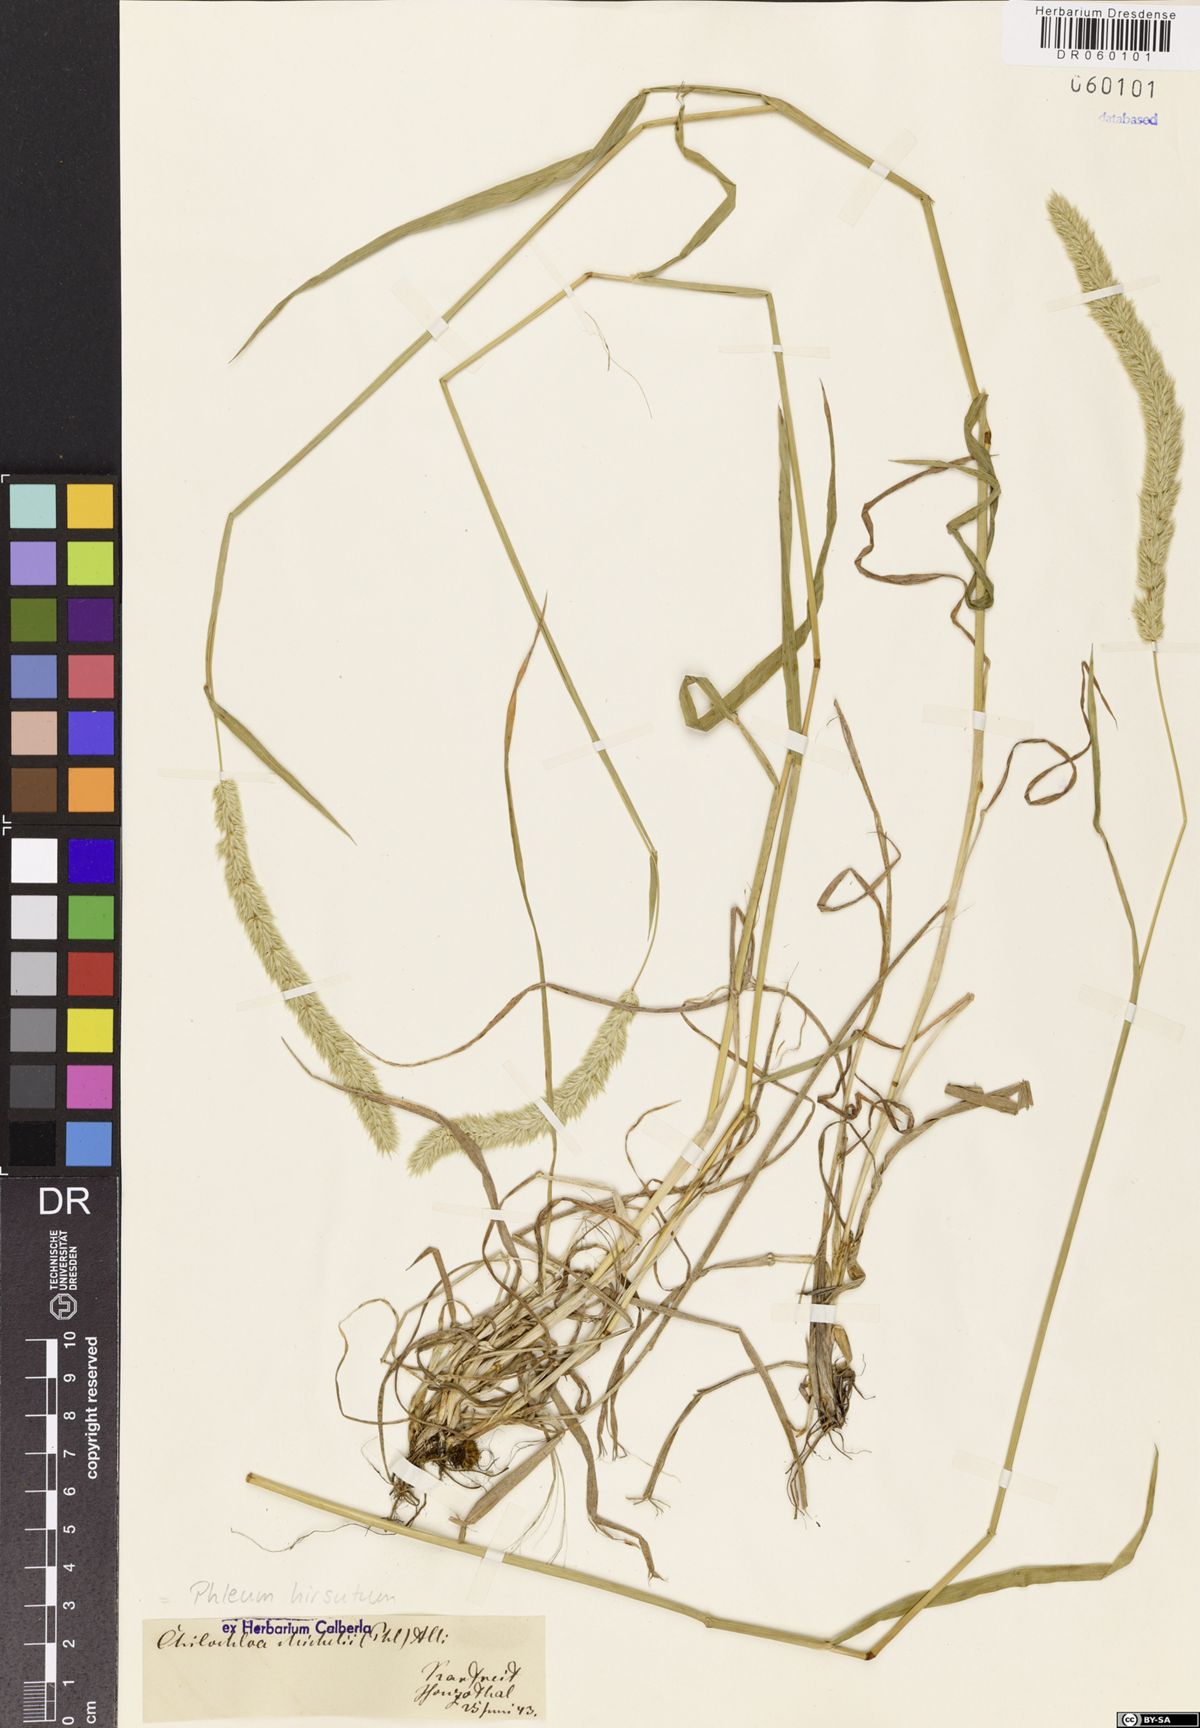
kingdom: Plantae
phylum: Tracheophyta
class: Liliopsida
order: Poales
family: Poaceae
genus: Phleum
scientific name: Phleum hirsutum
